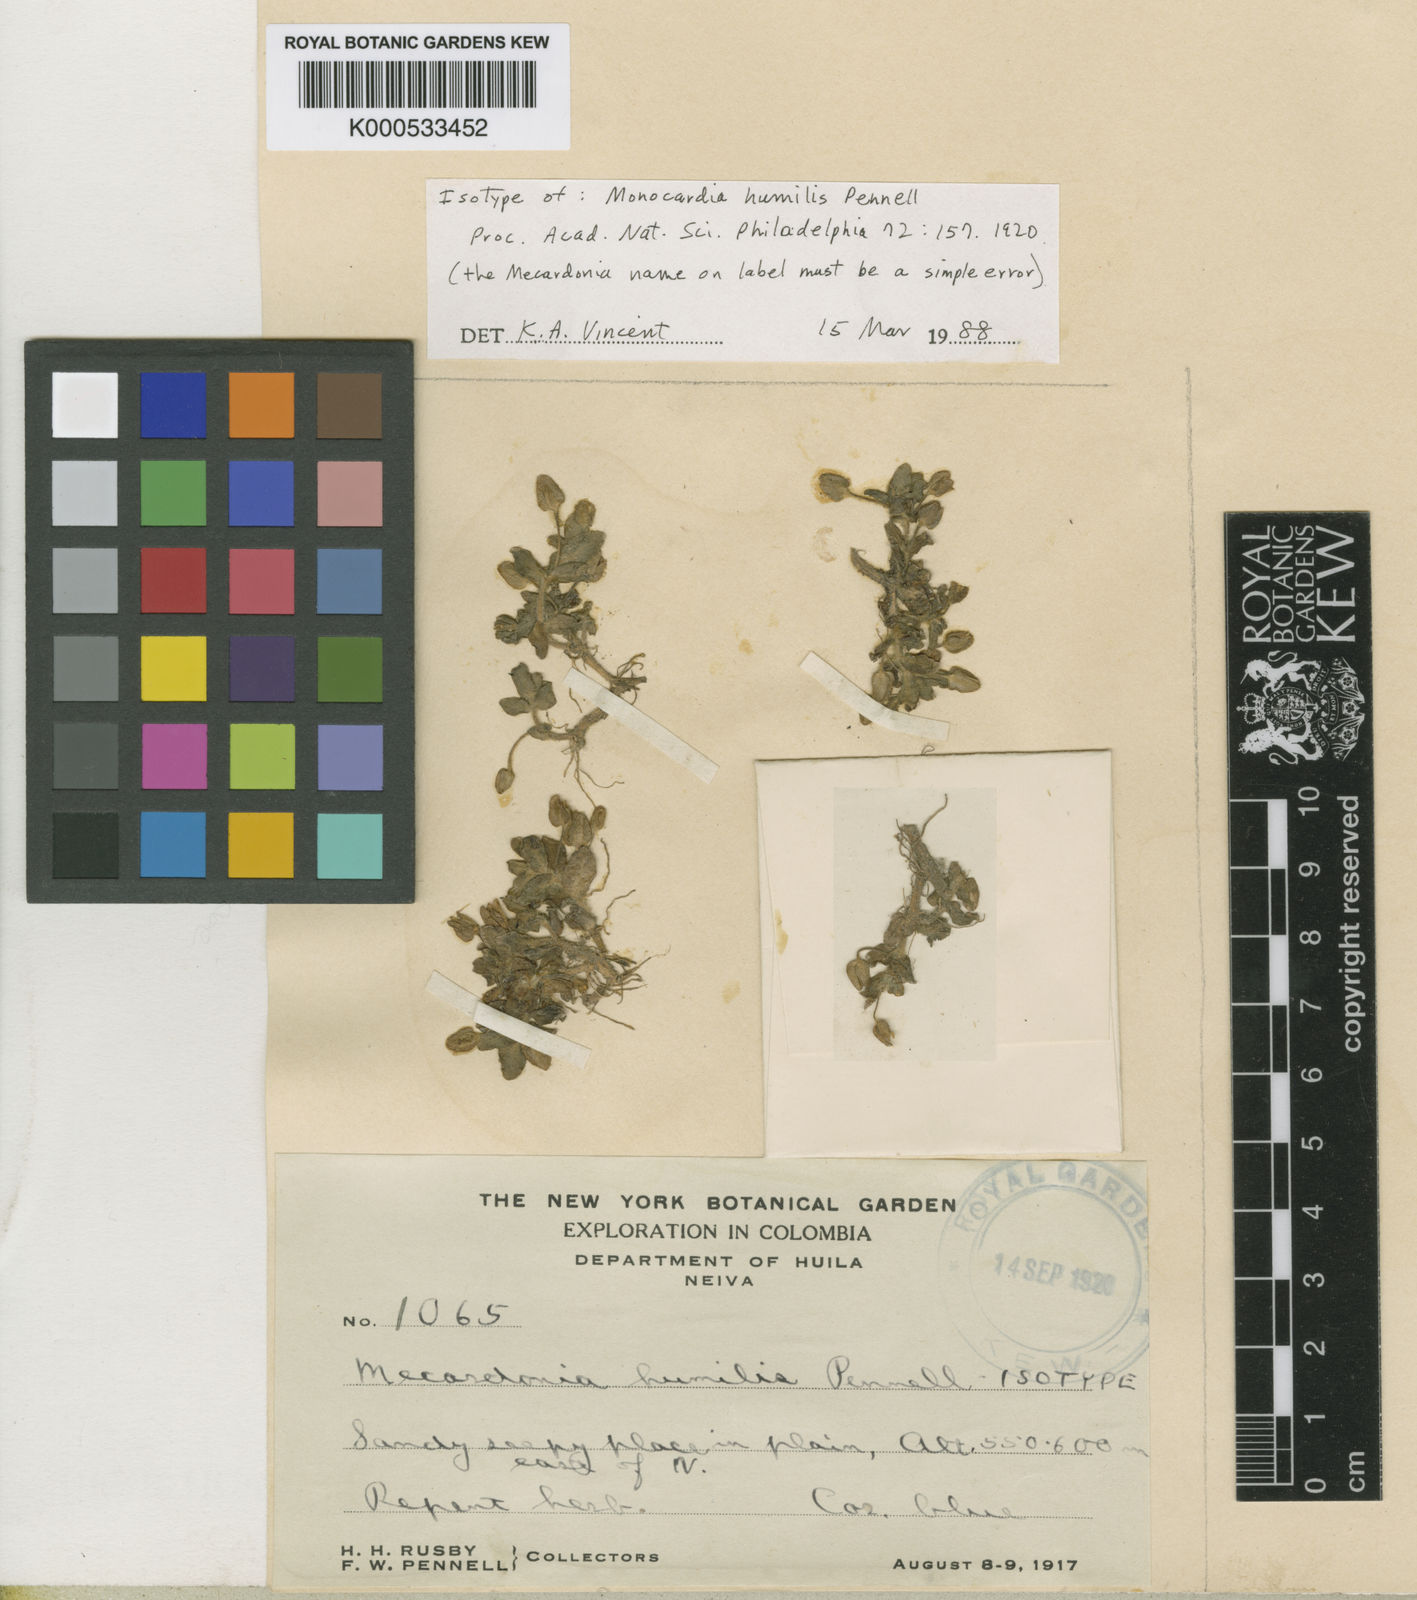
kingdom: Plantae
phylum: Tracheophyta
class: Magnoliopsida
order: Lamiales
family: Plantaginaceae
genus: Bacopa
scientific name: Bacopa salzmannii
